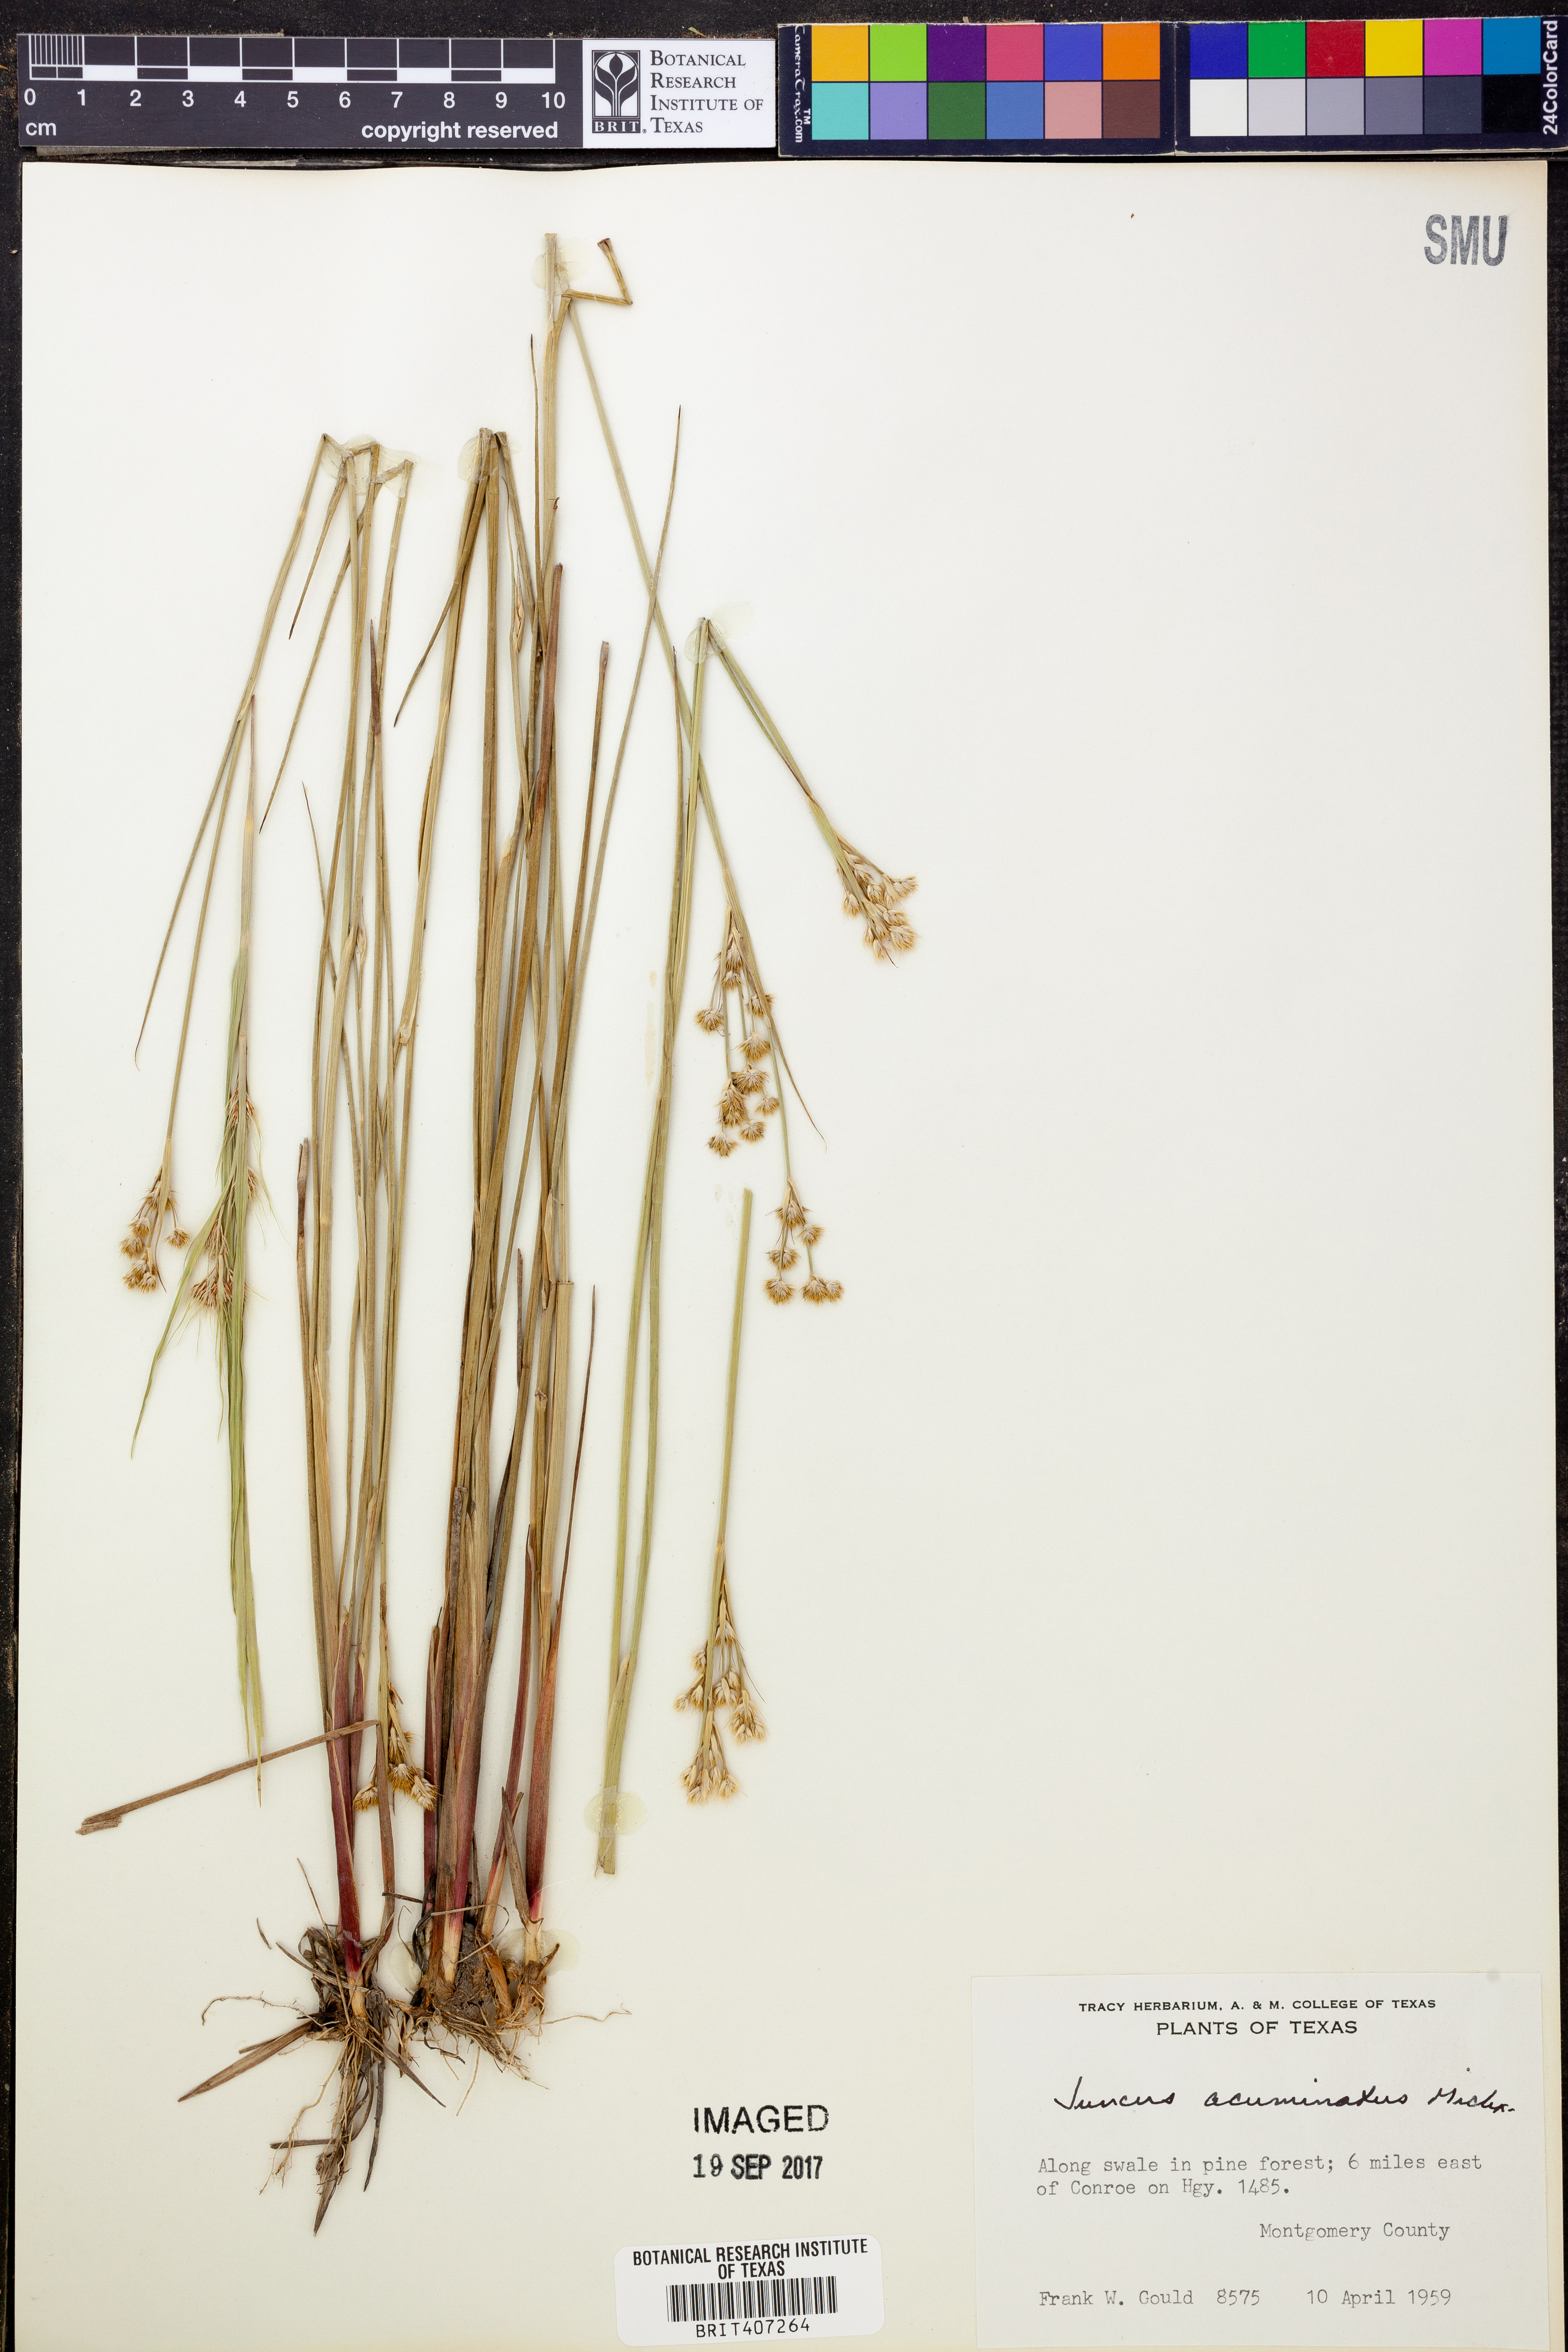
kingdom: Plantae
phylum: Tracheophyta
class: Liliopsida
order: Poales
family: Juncaceae
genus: Juncus
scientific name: Juncus acuminatus
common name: Knotty-leaved rush
